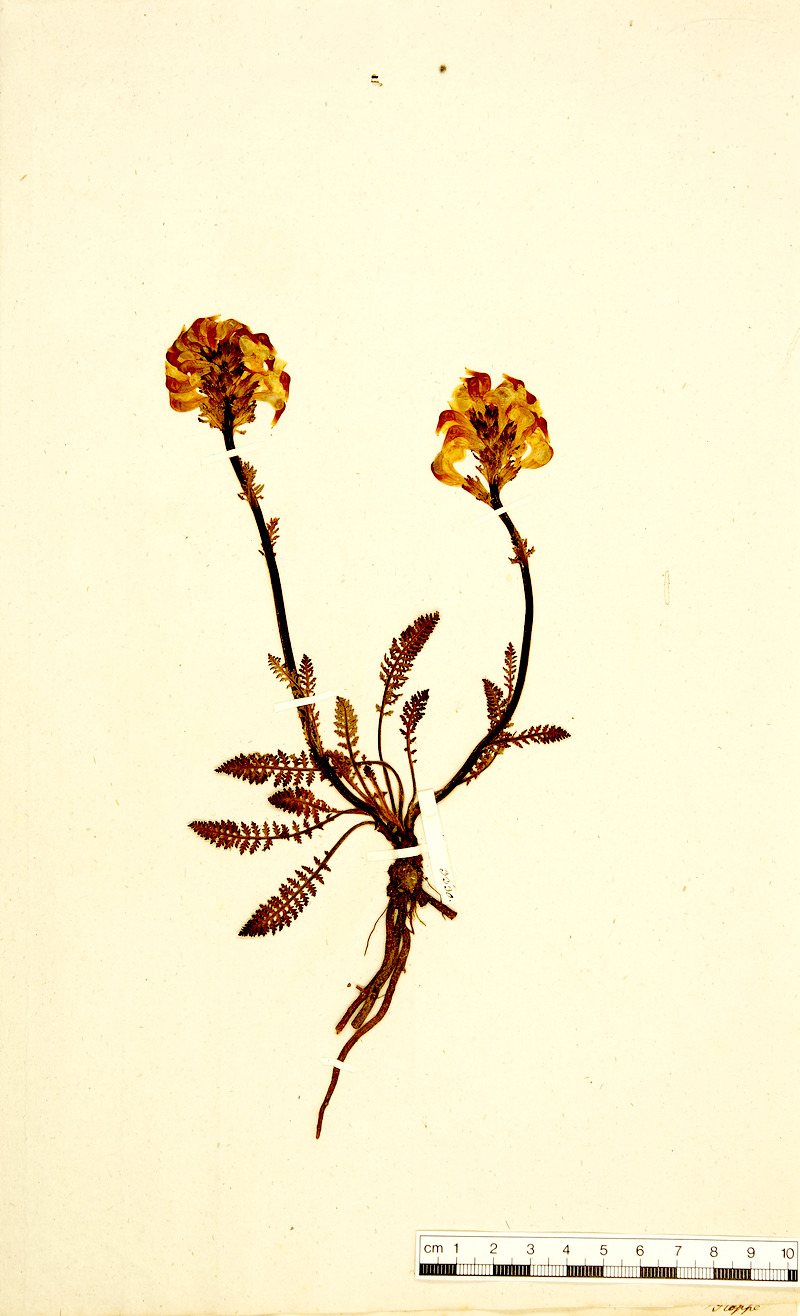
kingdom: Plantae
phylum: Tracheophyta
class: Magnoliopsida
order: Lamiales
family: Orobanchaceae
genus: Pedicularis
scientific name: Pedicularis tuberosa
